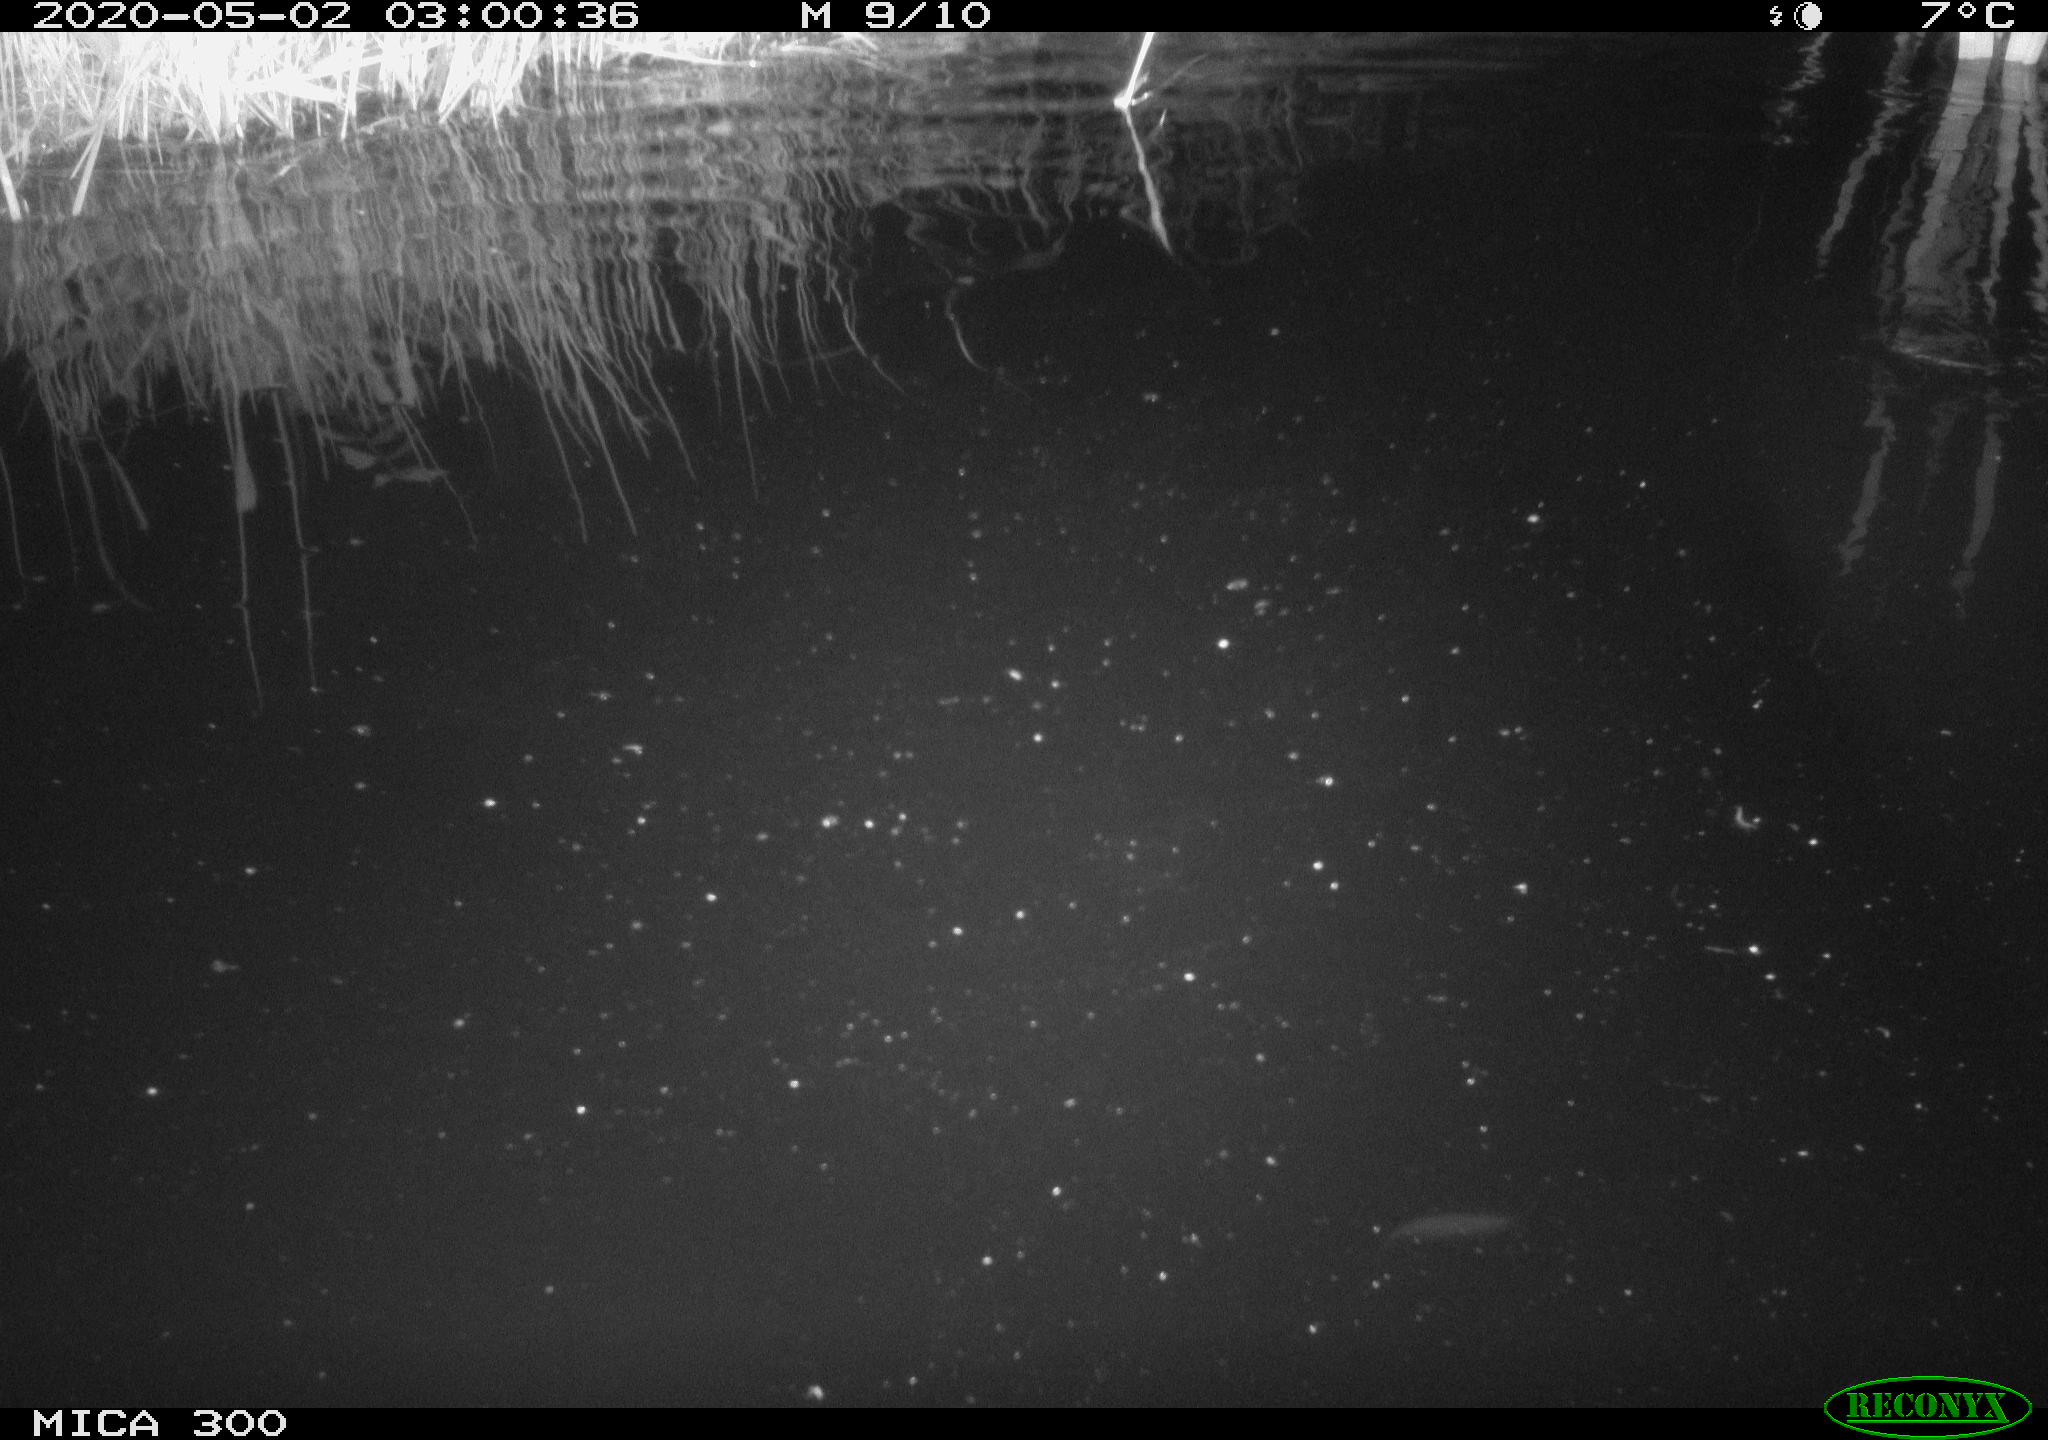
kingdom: Animalia
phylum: Chordata
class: Mammalia
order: Rodentia
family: Castoridae
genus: Castor
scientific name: Castor fiber
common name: Eurasian beaver
